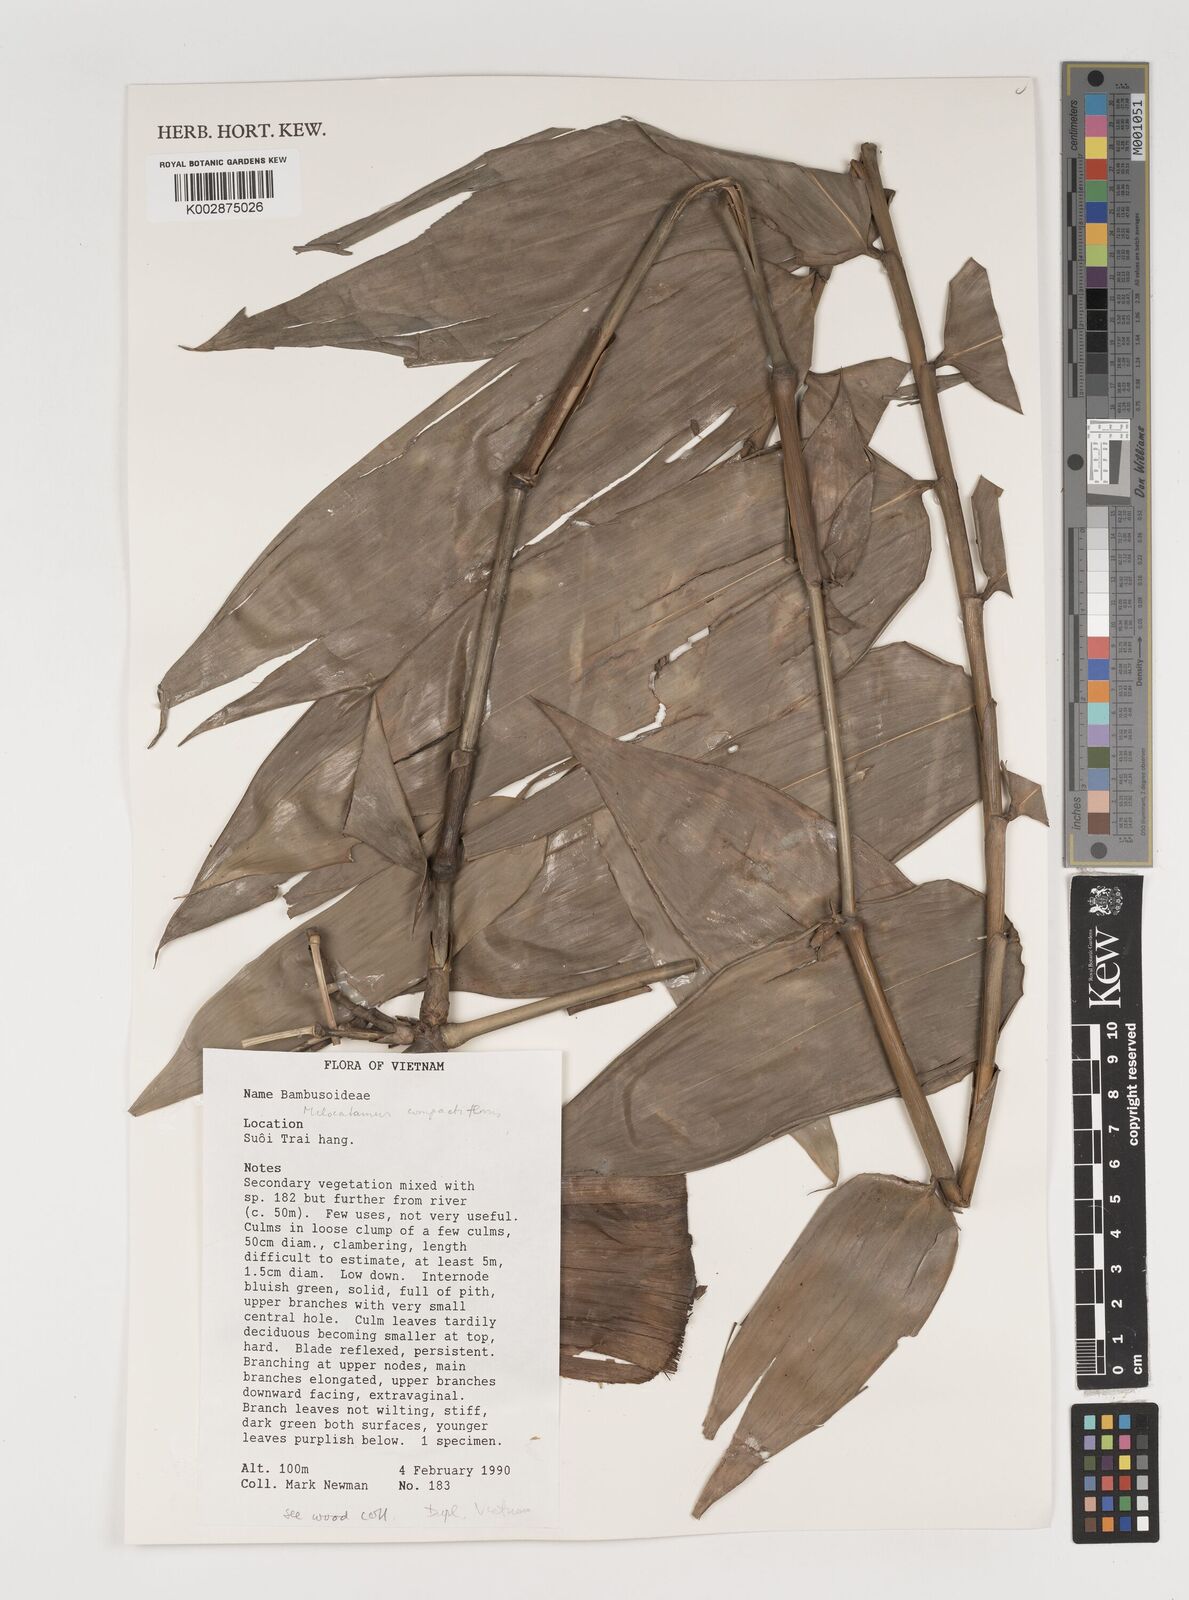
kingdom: Plantae
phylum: Tracheophyta
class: Liliopsida
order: Poales
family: Poaceae
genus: Melocalamus
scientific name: Melocalamus
